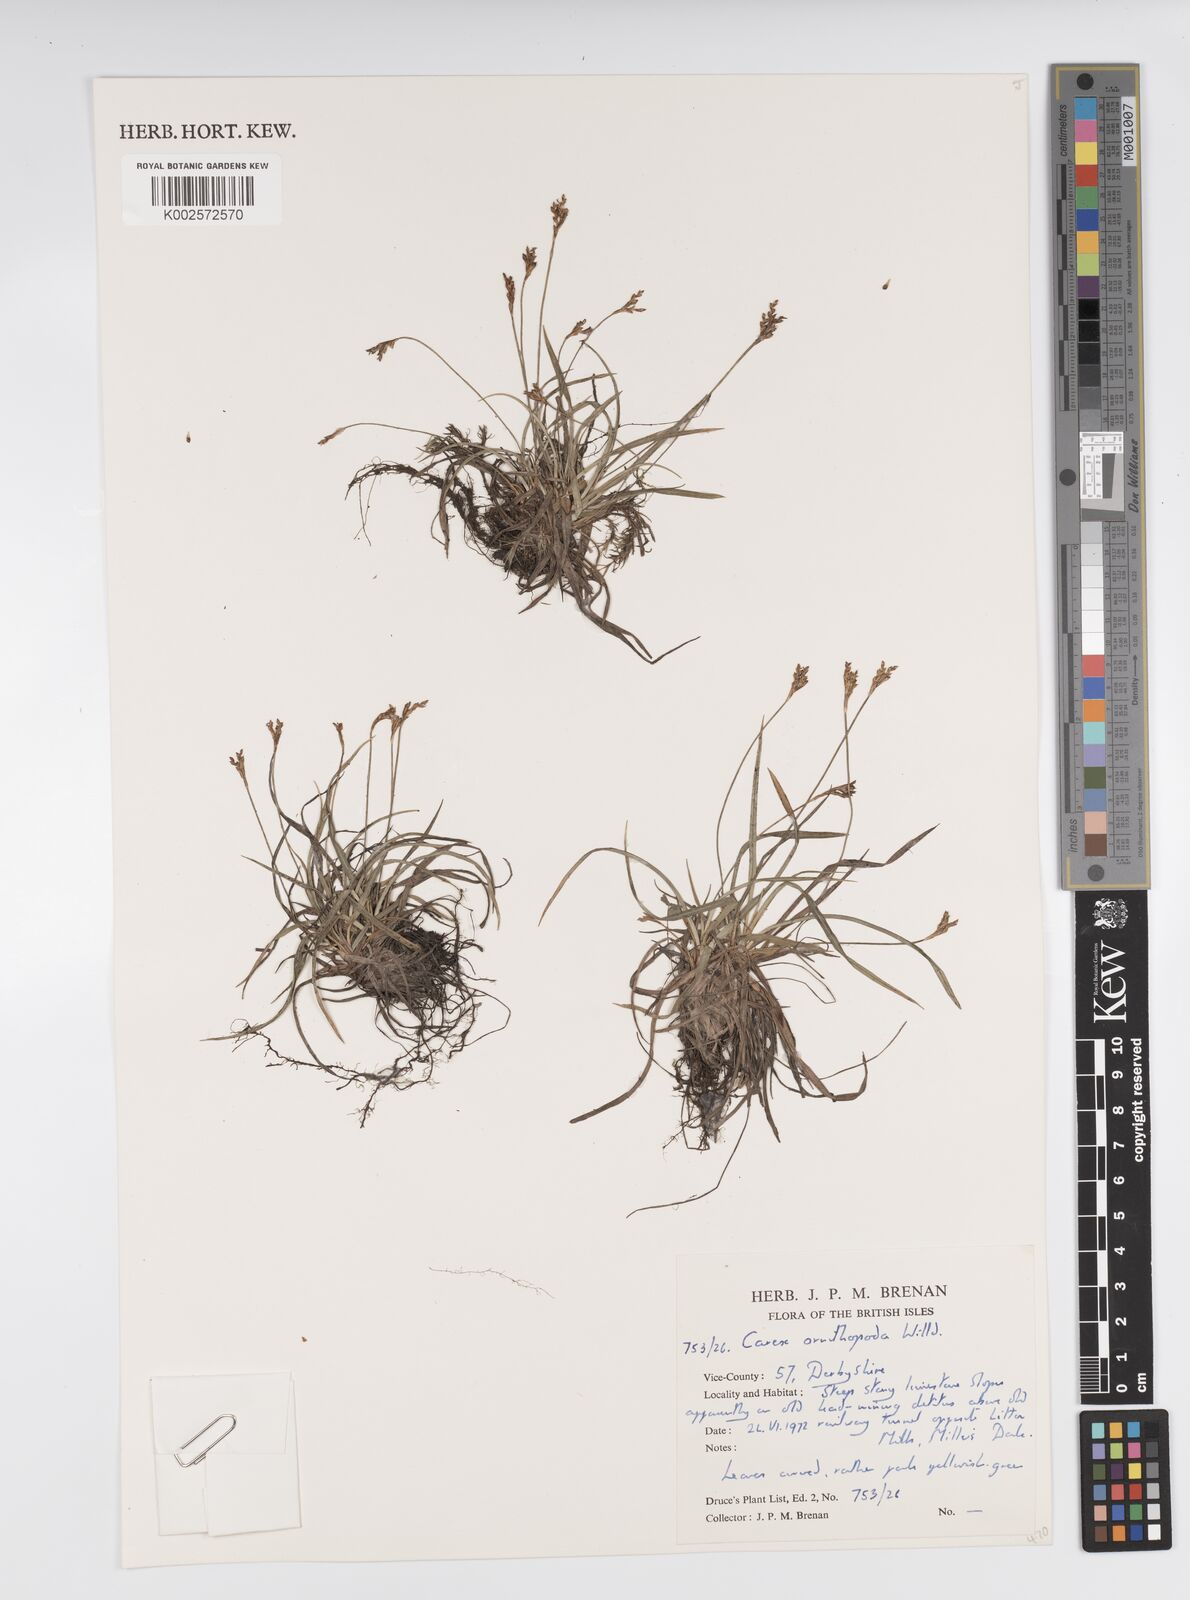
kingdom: Plantae
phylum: Tracheophyta
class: Liliopsida
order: Poales
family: Cyperaceae
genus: Carex
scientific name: Carex ornithopoda
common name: Bird's-foot sedge
